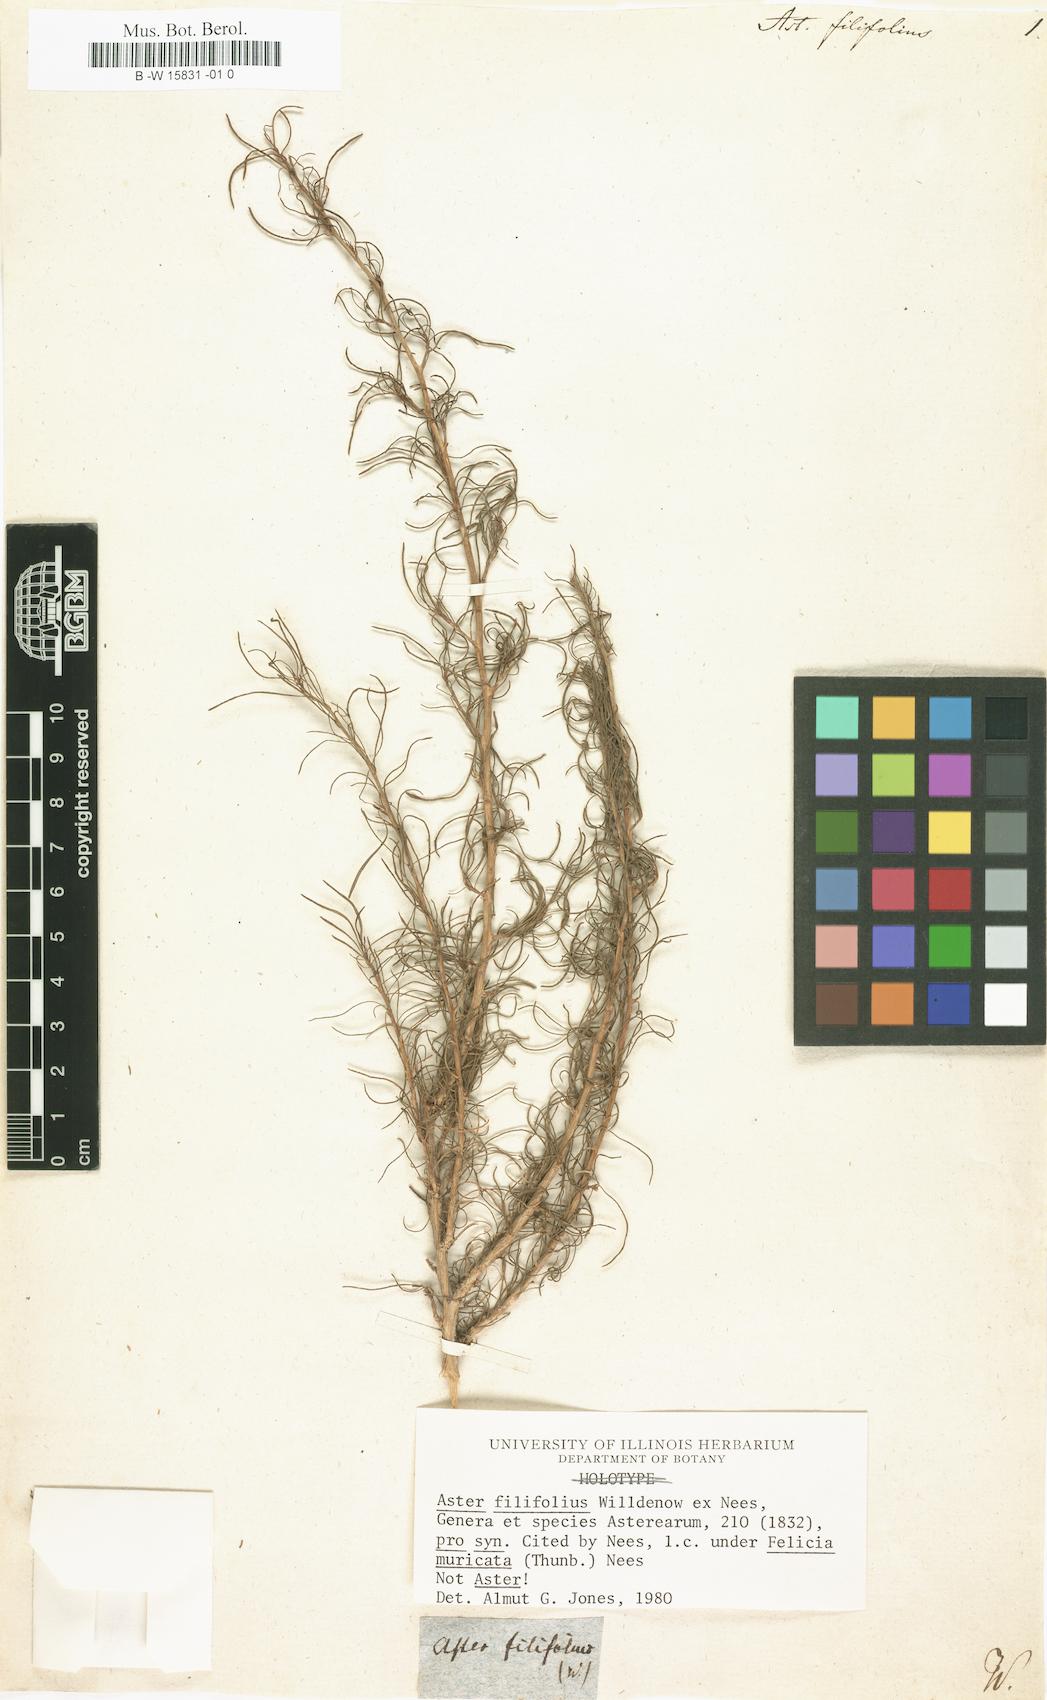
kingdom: Plantae
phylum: Tracheophyta
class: Magnoliopsida
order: Asterales
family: Asteraceae
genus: Felicia
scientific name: Felicia
